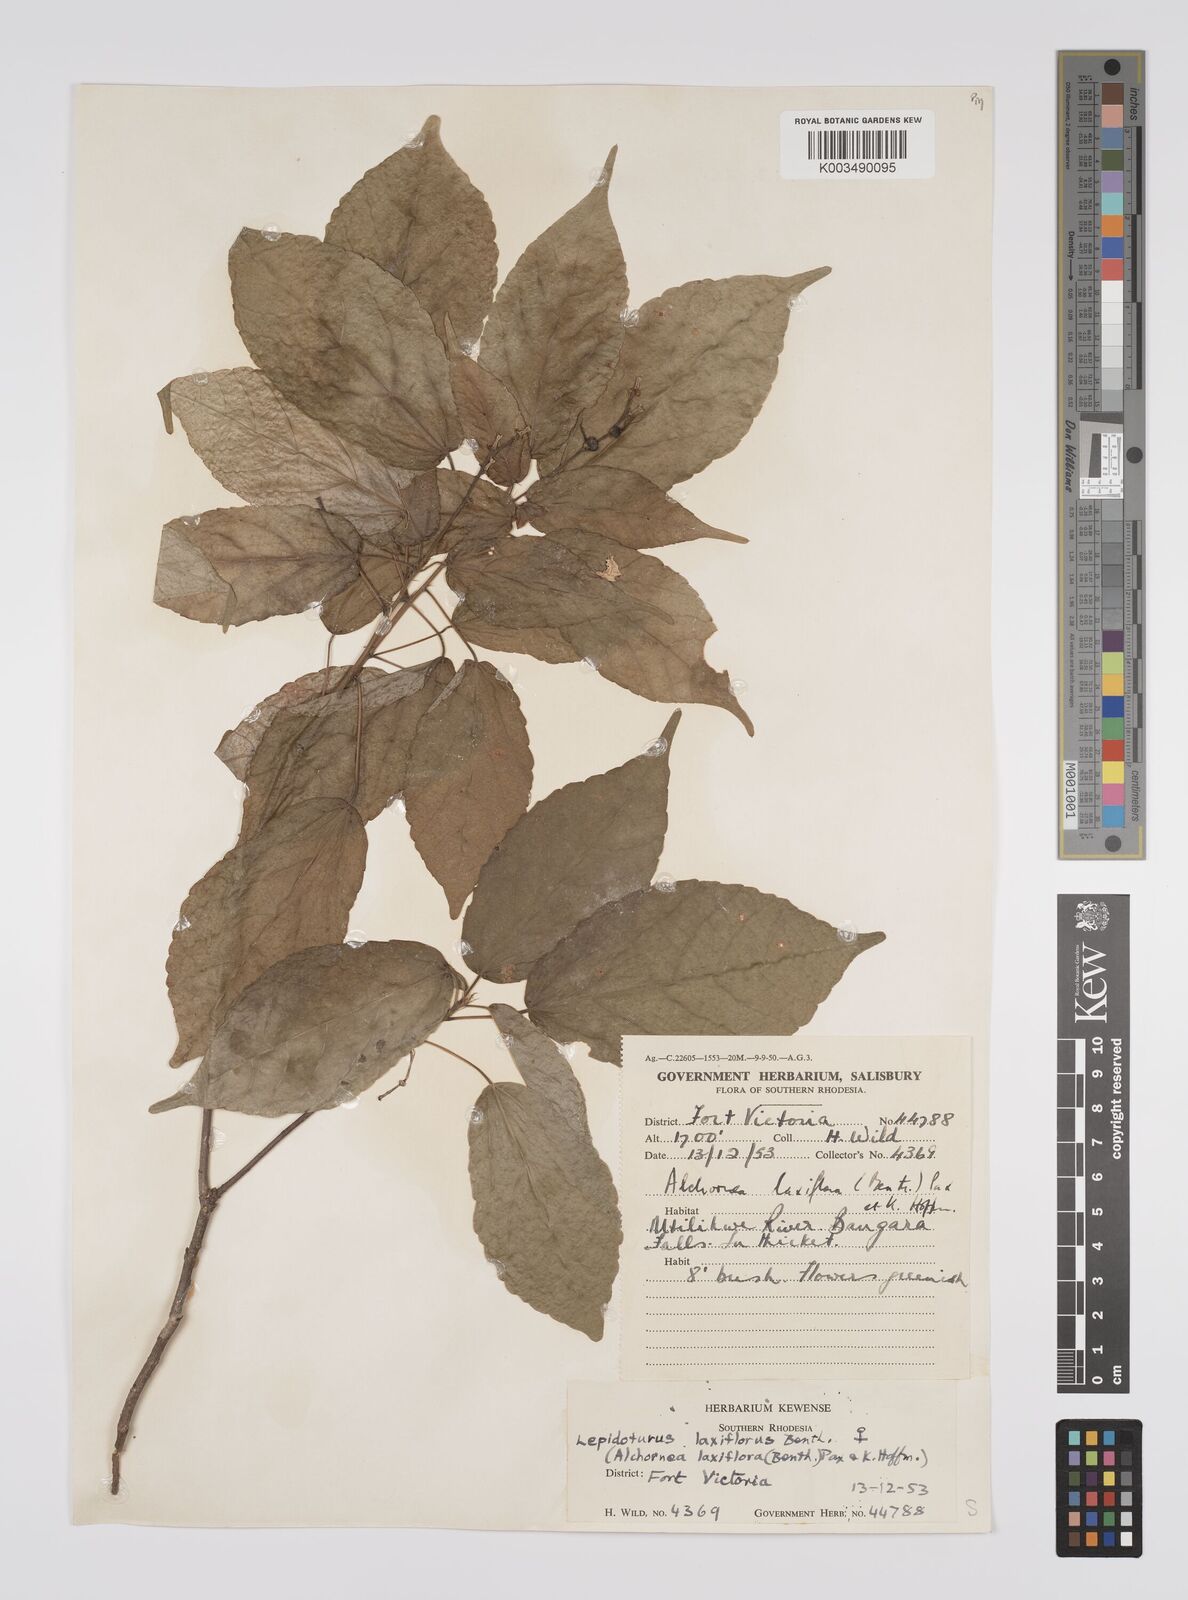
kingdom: Plantae
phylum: Tracheophyta
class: Magnoliopsida
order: Malpighiales
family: Euphorbiaceae
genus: Alchornea
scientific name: Alchornea laxiflora
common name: Lowveld bead-string
